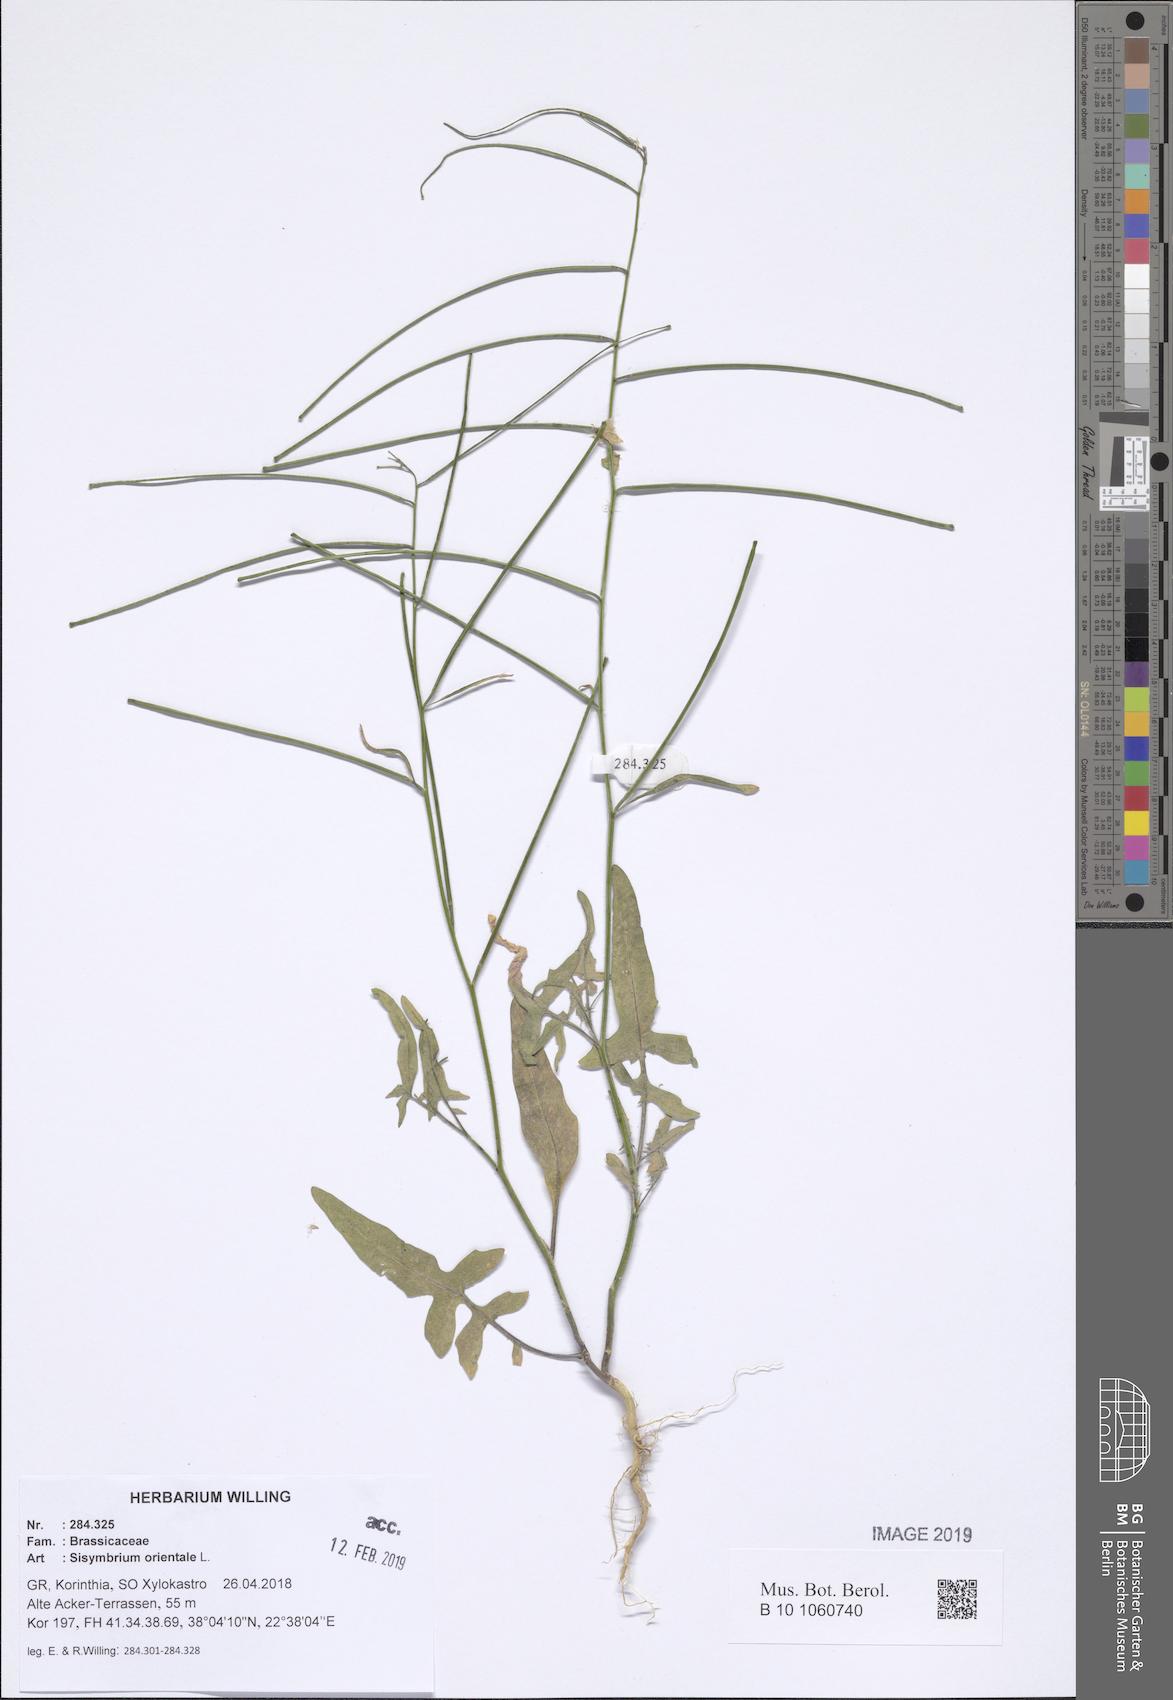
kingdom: Plantae
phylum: Tracheophyta
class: Magnoliopsida
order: Brassicales
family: Brassicaceae
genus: Sisymbrium
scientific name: Sisymbrium orientale
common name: Eastern rocket
